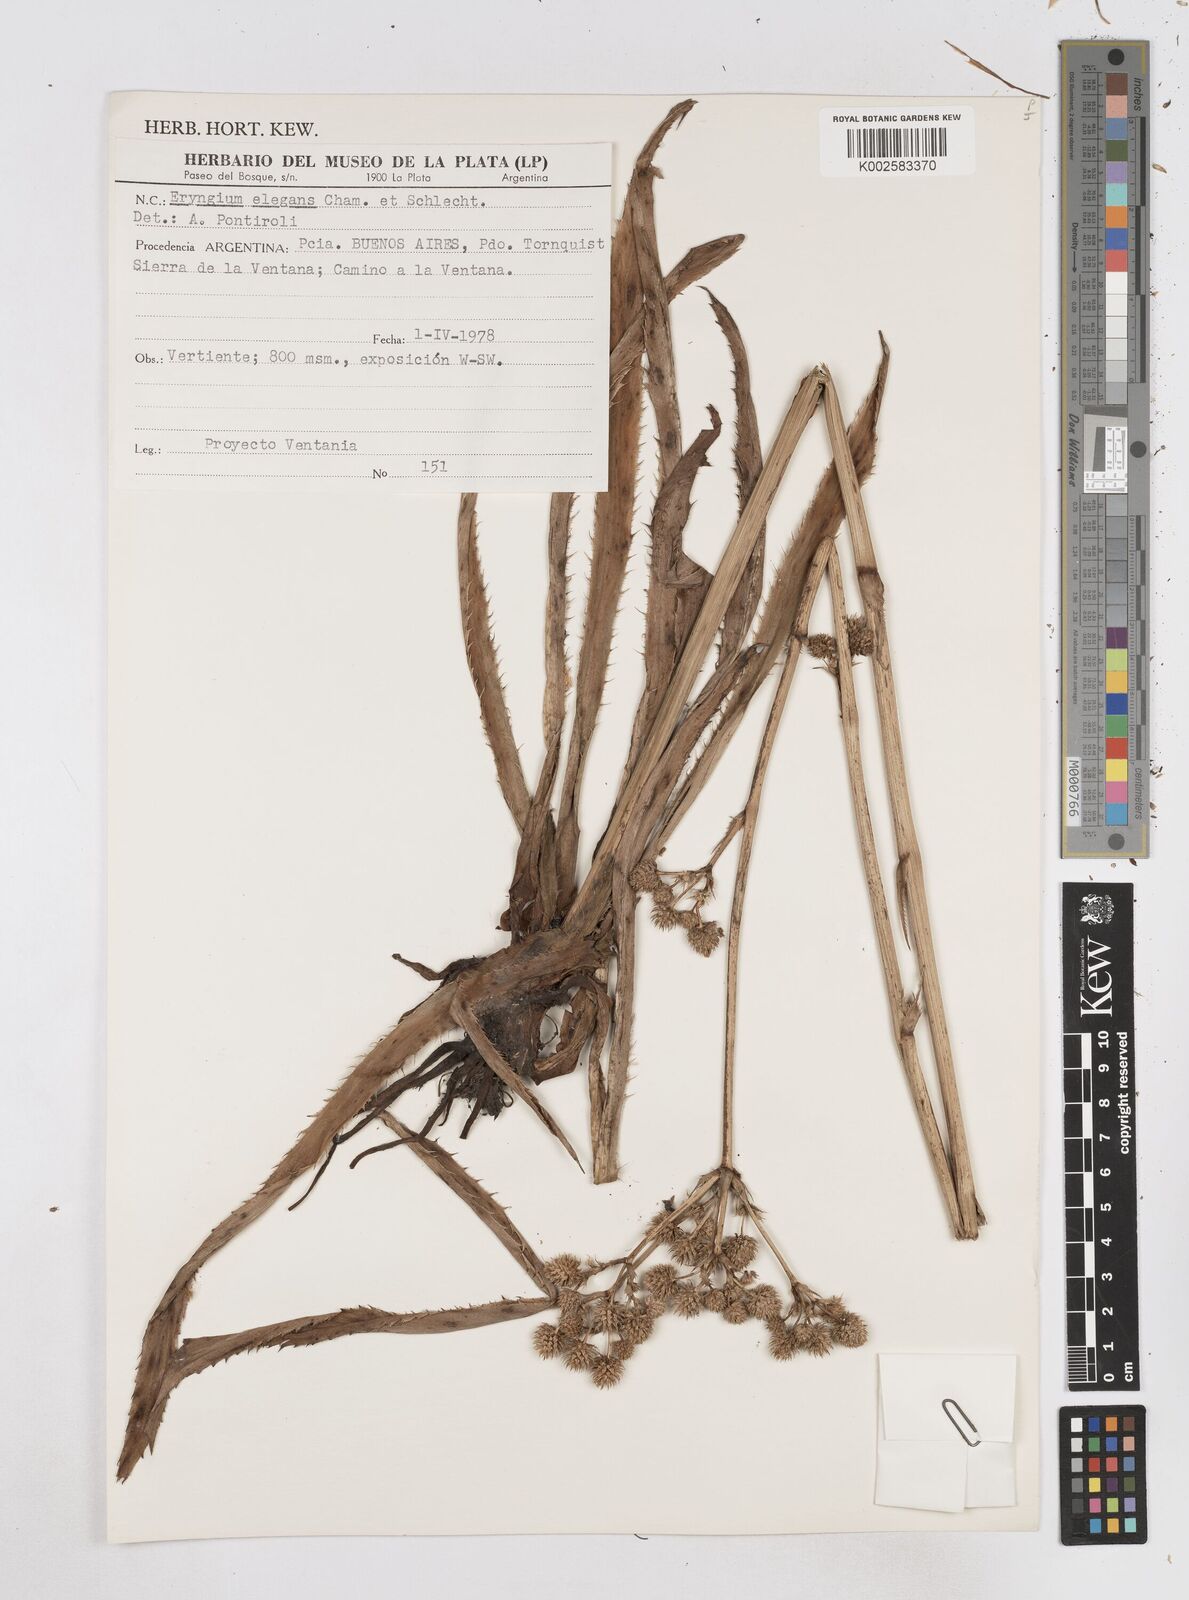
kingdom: Plantae
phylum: Tracheophyta
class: Magnoliopsida
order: Apiales
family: Apiaceae
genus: Eryngium
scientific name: Eryngium elegans
